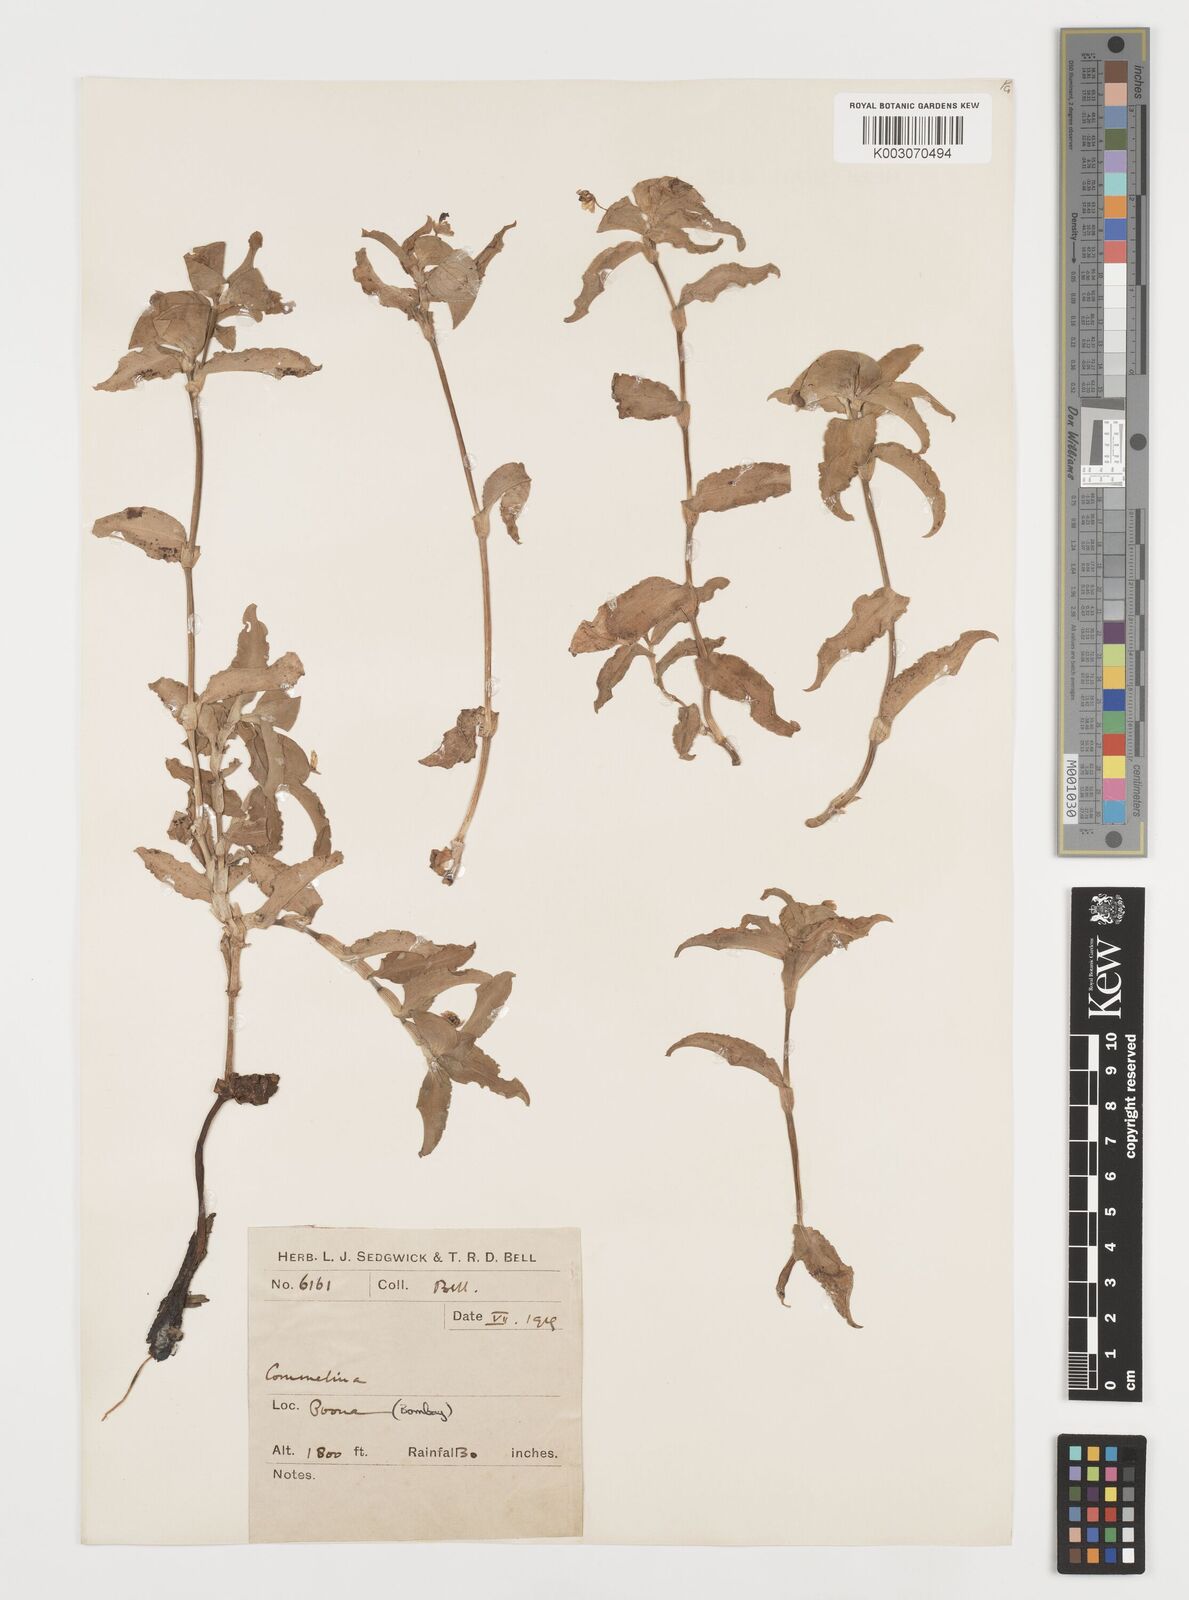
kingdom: Plantae
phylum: Tracheophyta
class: Liliopsida
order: Commelinales
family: Commelinaceae
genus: Commelina
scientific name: Commelina
